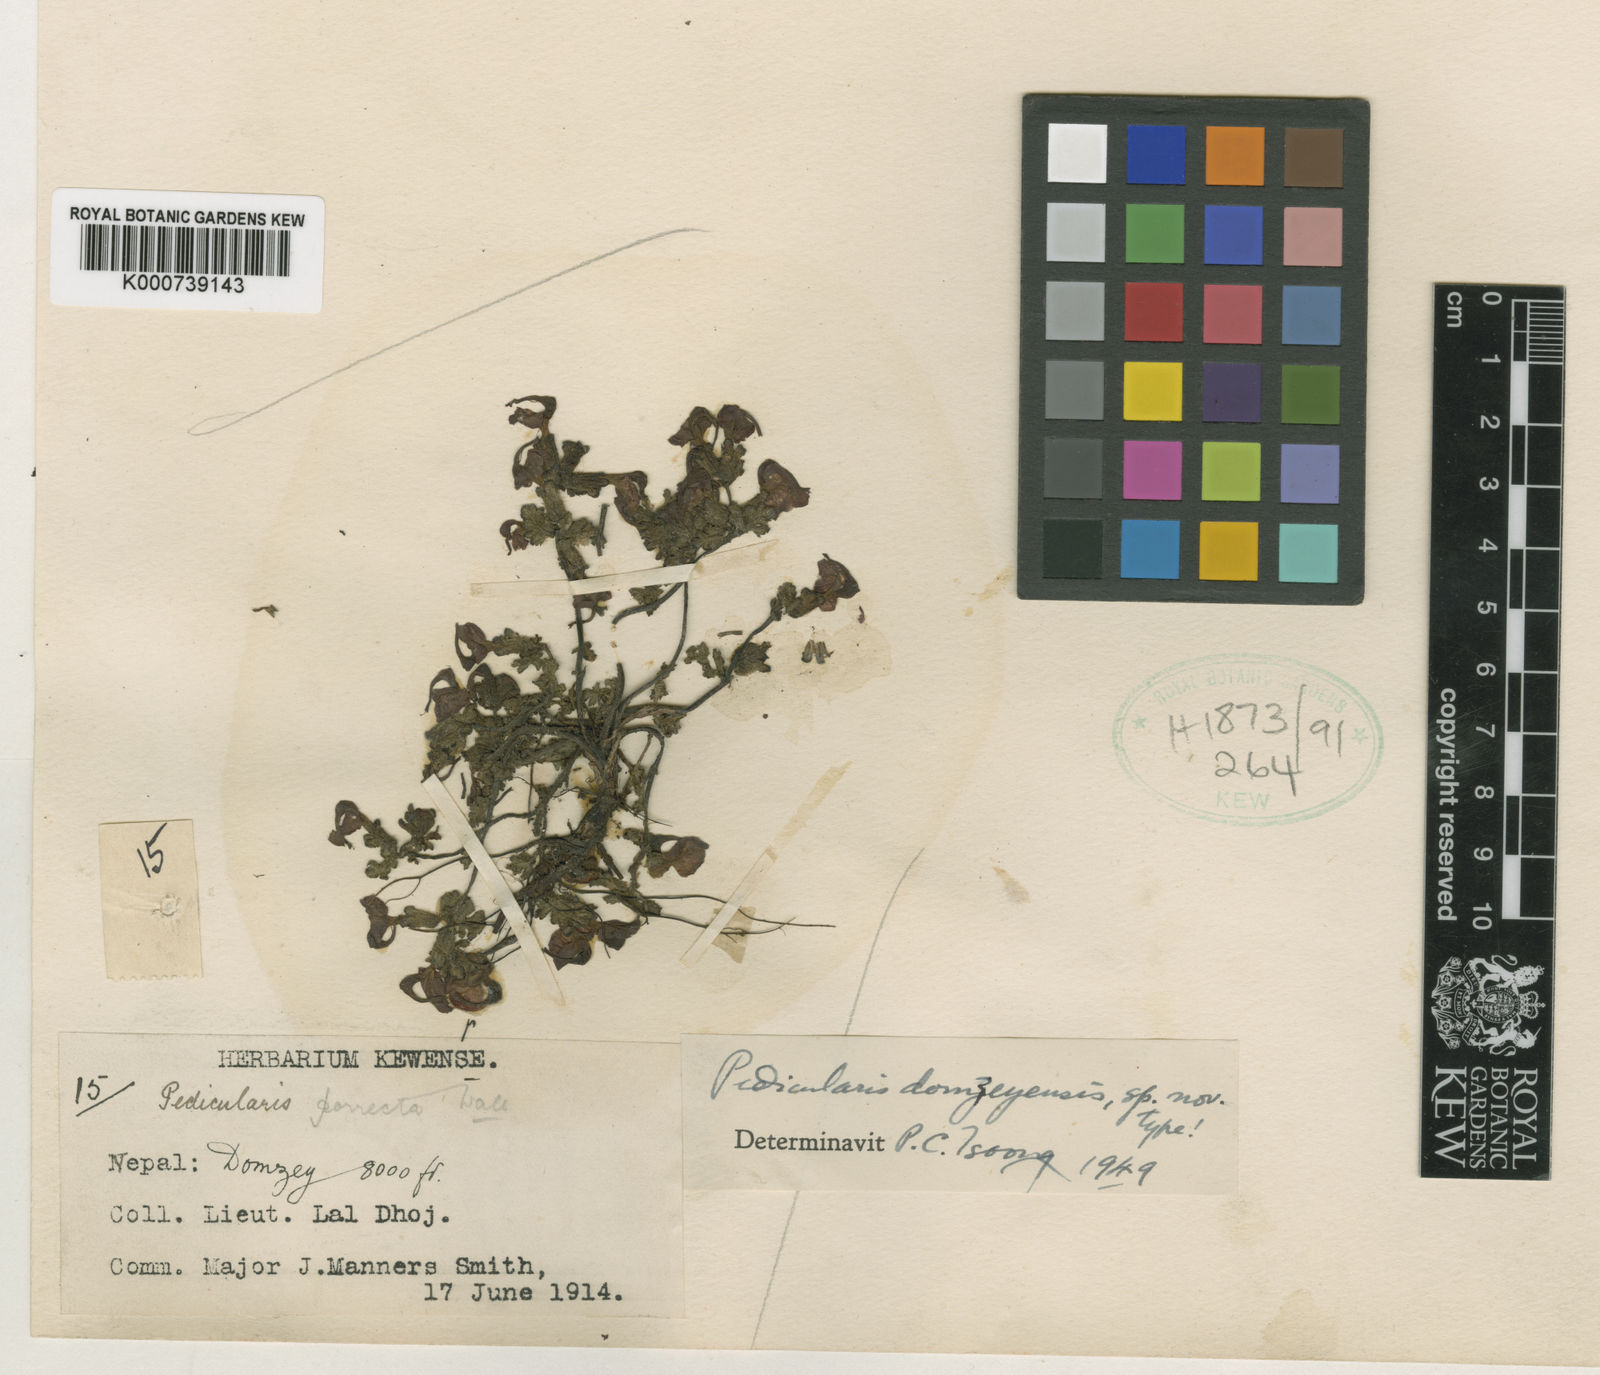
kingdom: Plantae
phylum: Tracheophyta
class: Magnoliopsida
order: Lamiales
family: Orobanchaceae
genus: Pedicularis
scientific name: Pedicularis
